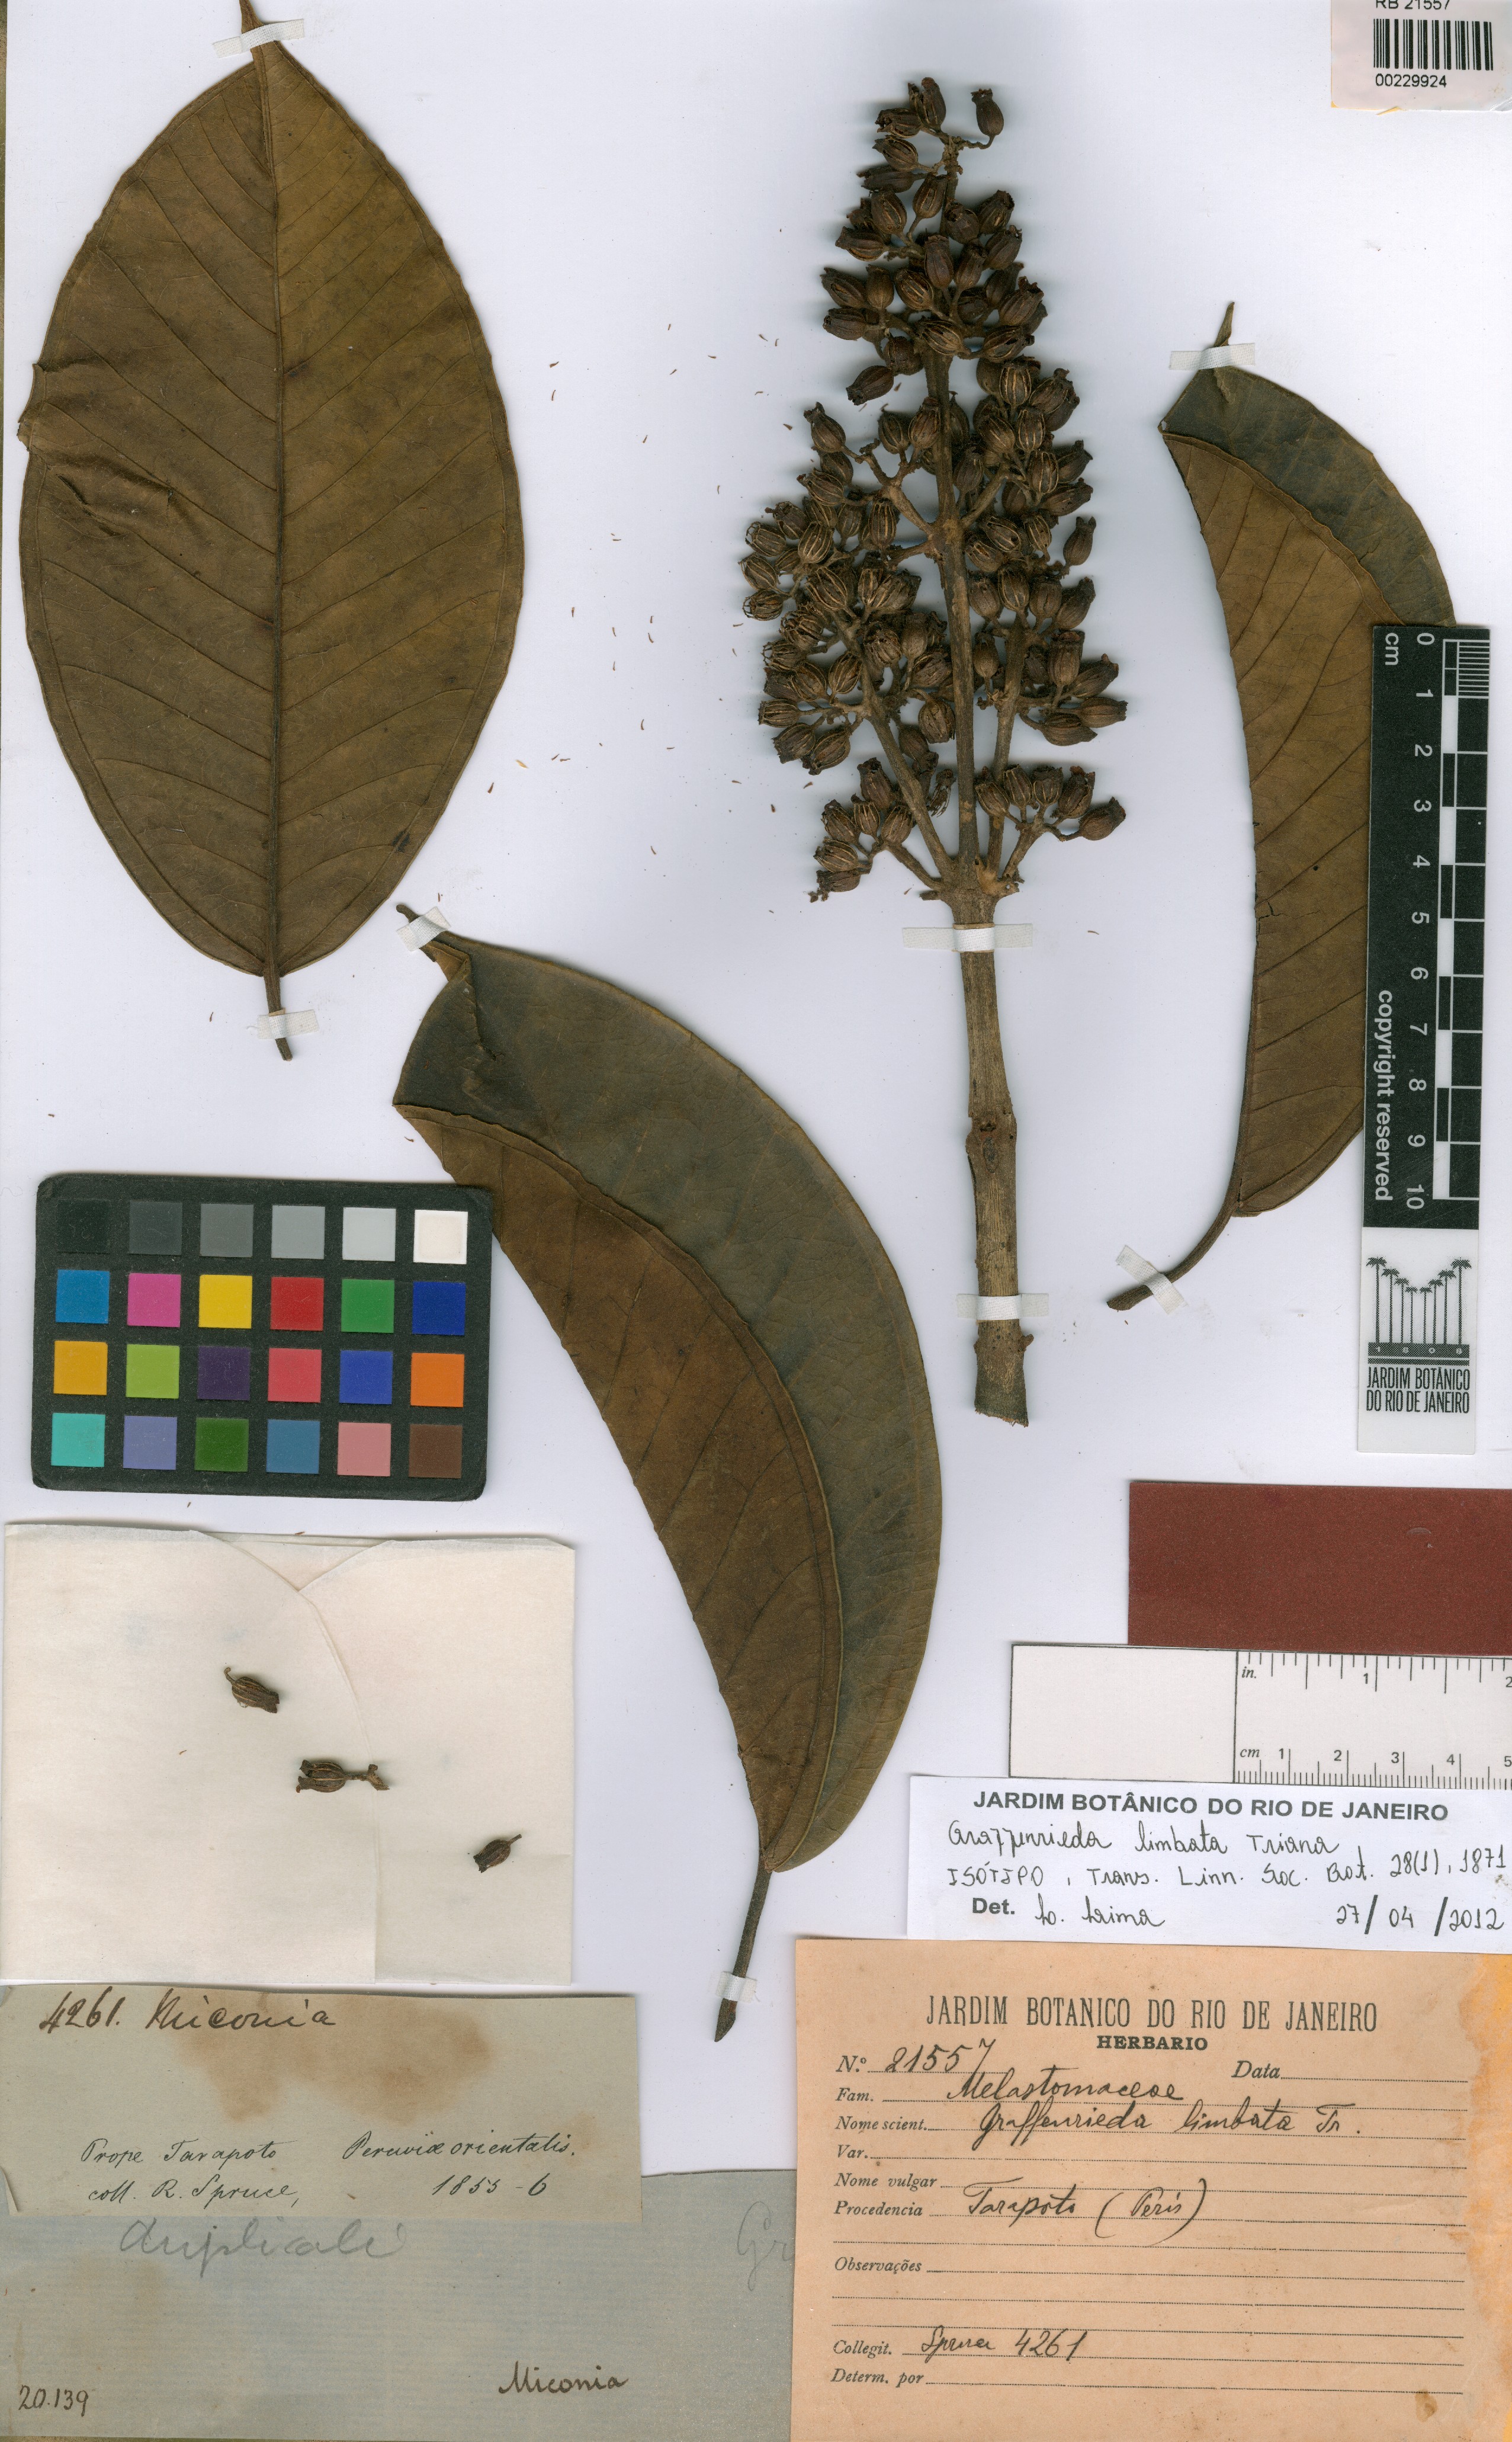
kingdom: Plantae
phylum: Tracheophyta
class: Magnoliopsida
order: Myrtales
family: Melastomataceae
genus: Graffenrieda
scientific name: Graffenrieda limbata
